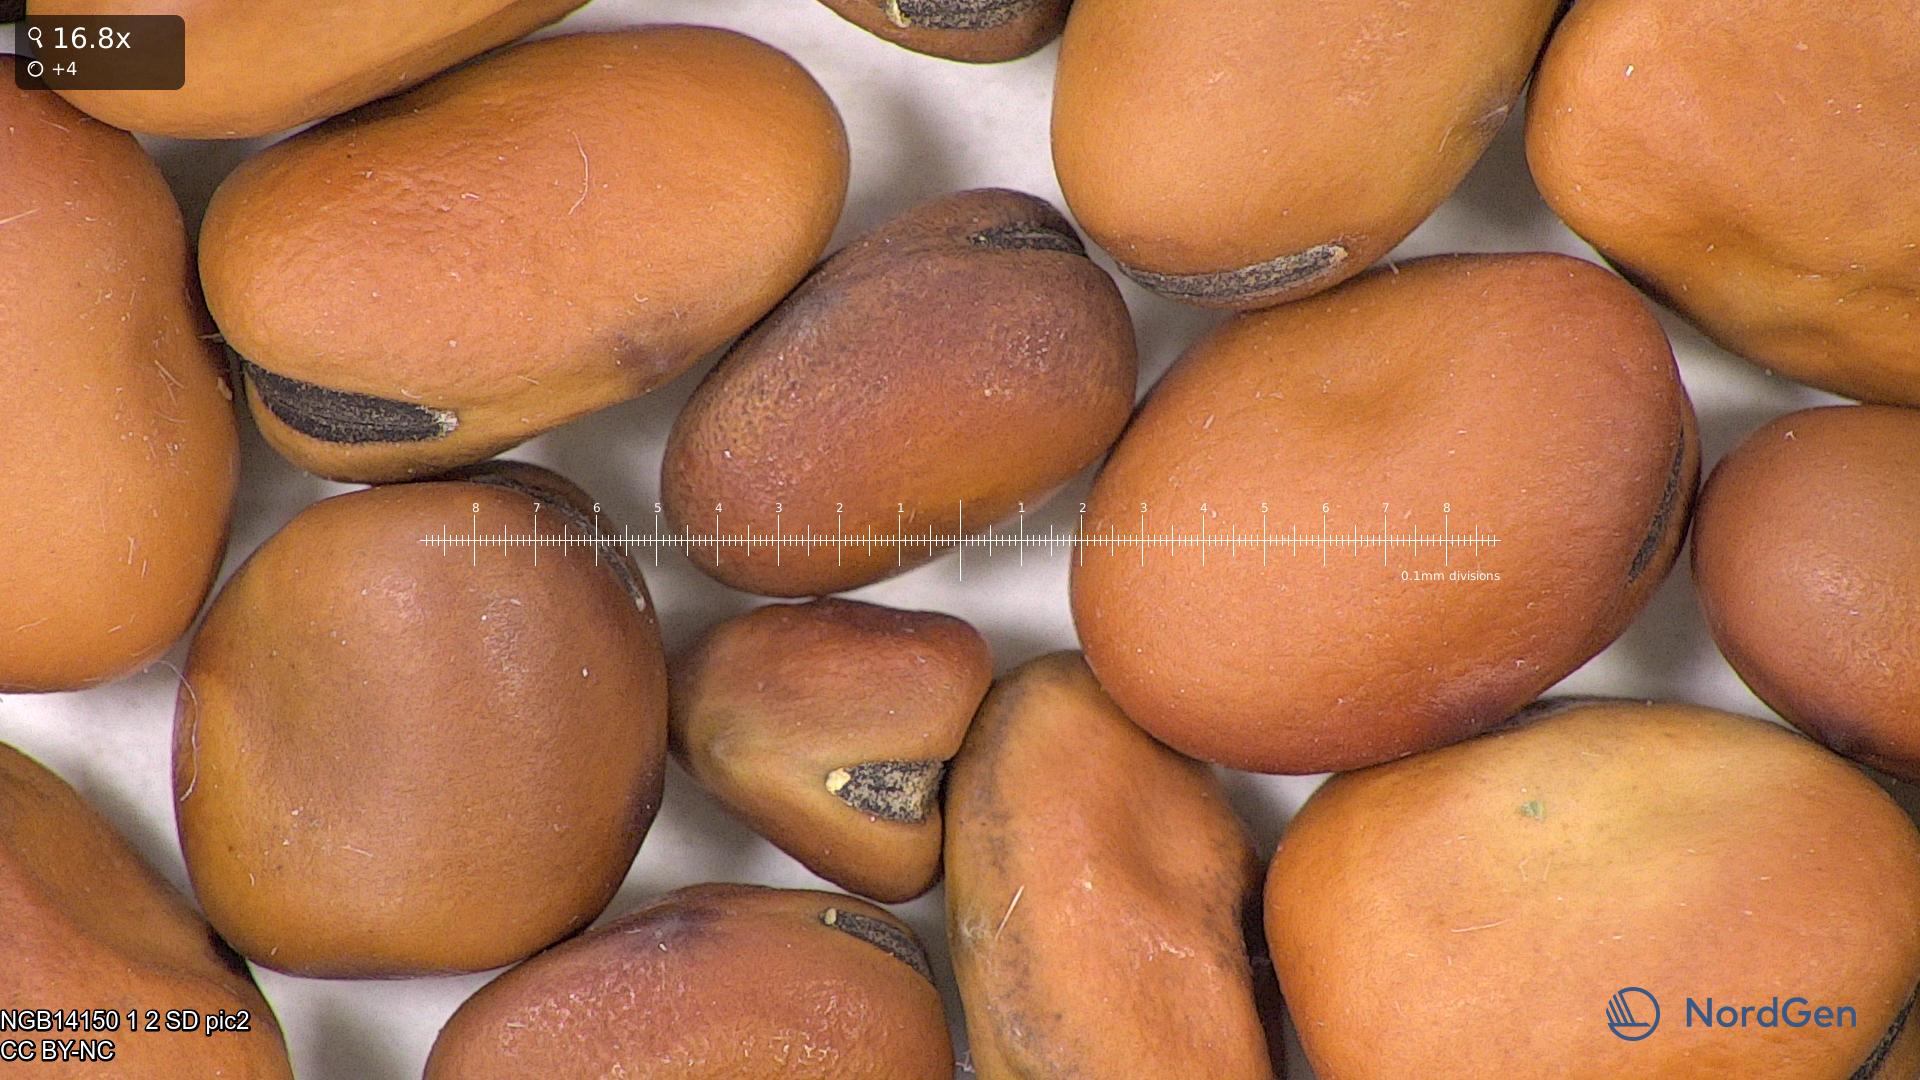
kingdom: Plantae
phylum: Tracheophyta
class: Magnoliopsida
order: Fabales
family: Fabaceae
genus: Vicia
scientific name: Vicia faba
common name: Broad bean
